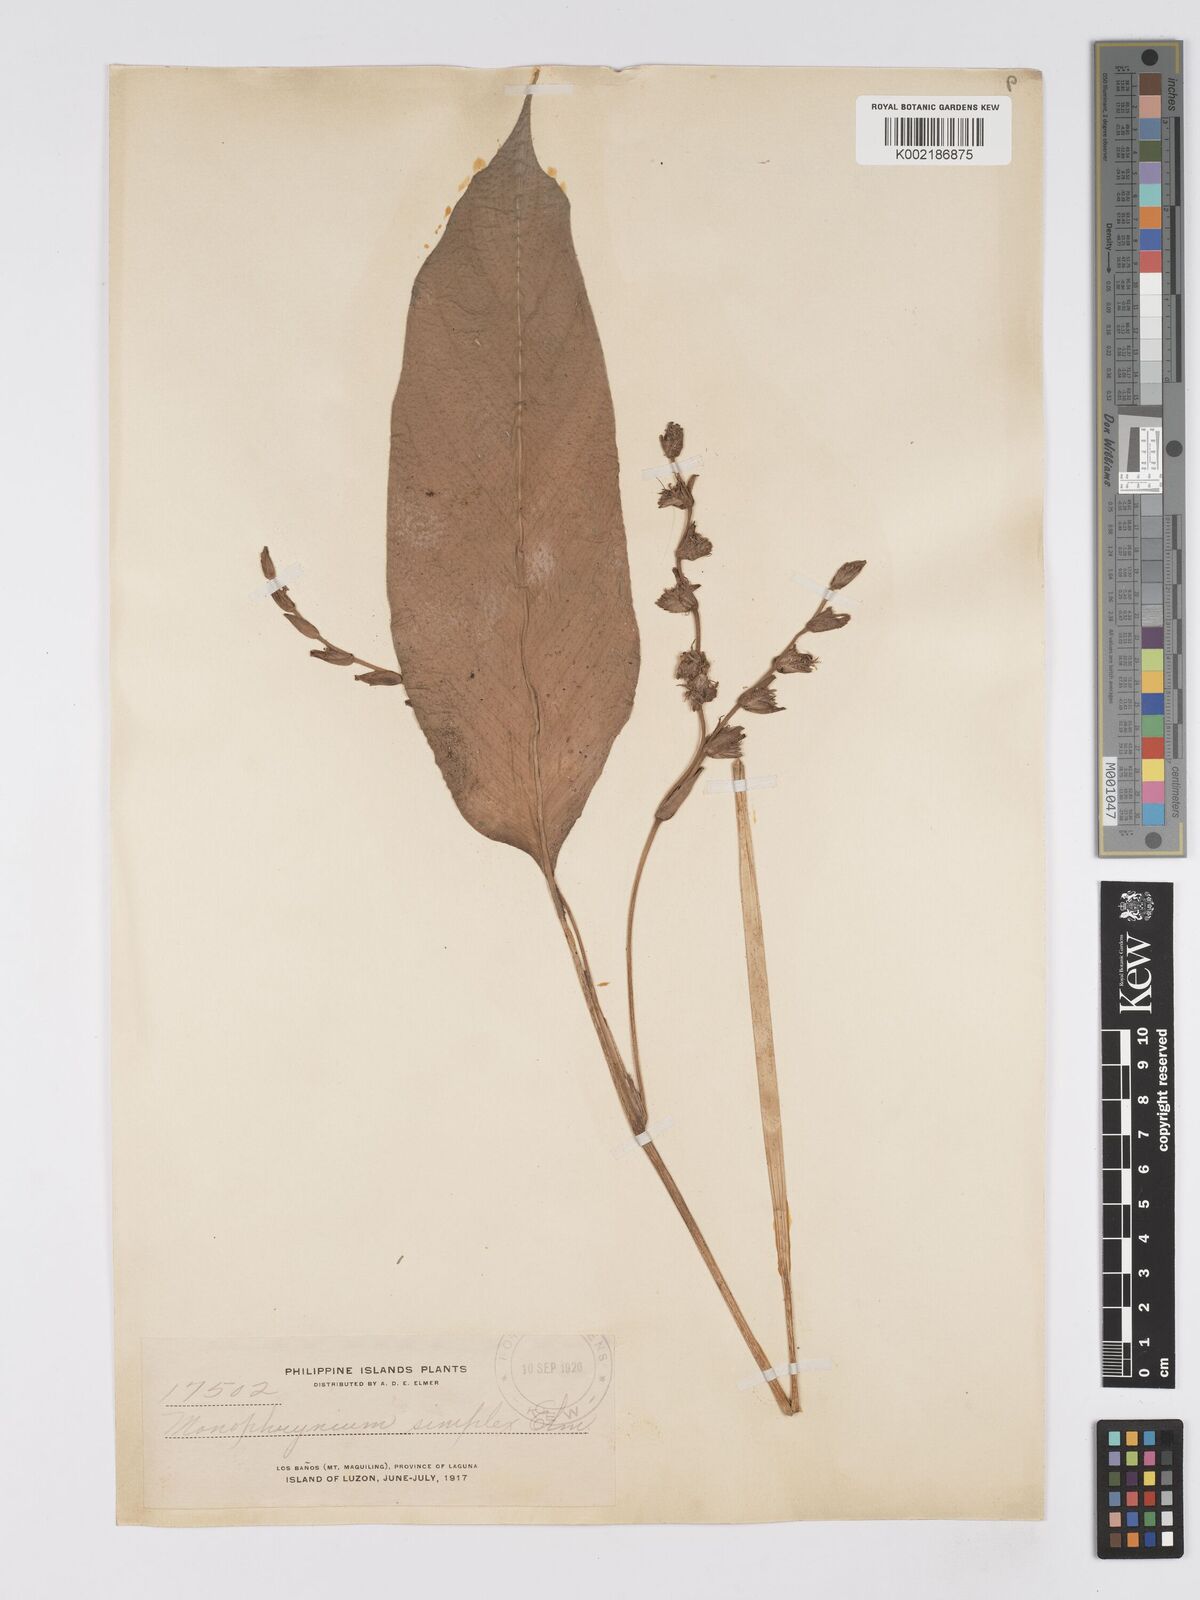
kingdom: Plantae
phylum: Tracheophyta
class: Liliopsida
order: Zingiberales
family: Marantaceae
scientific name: Marantaceae
